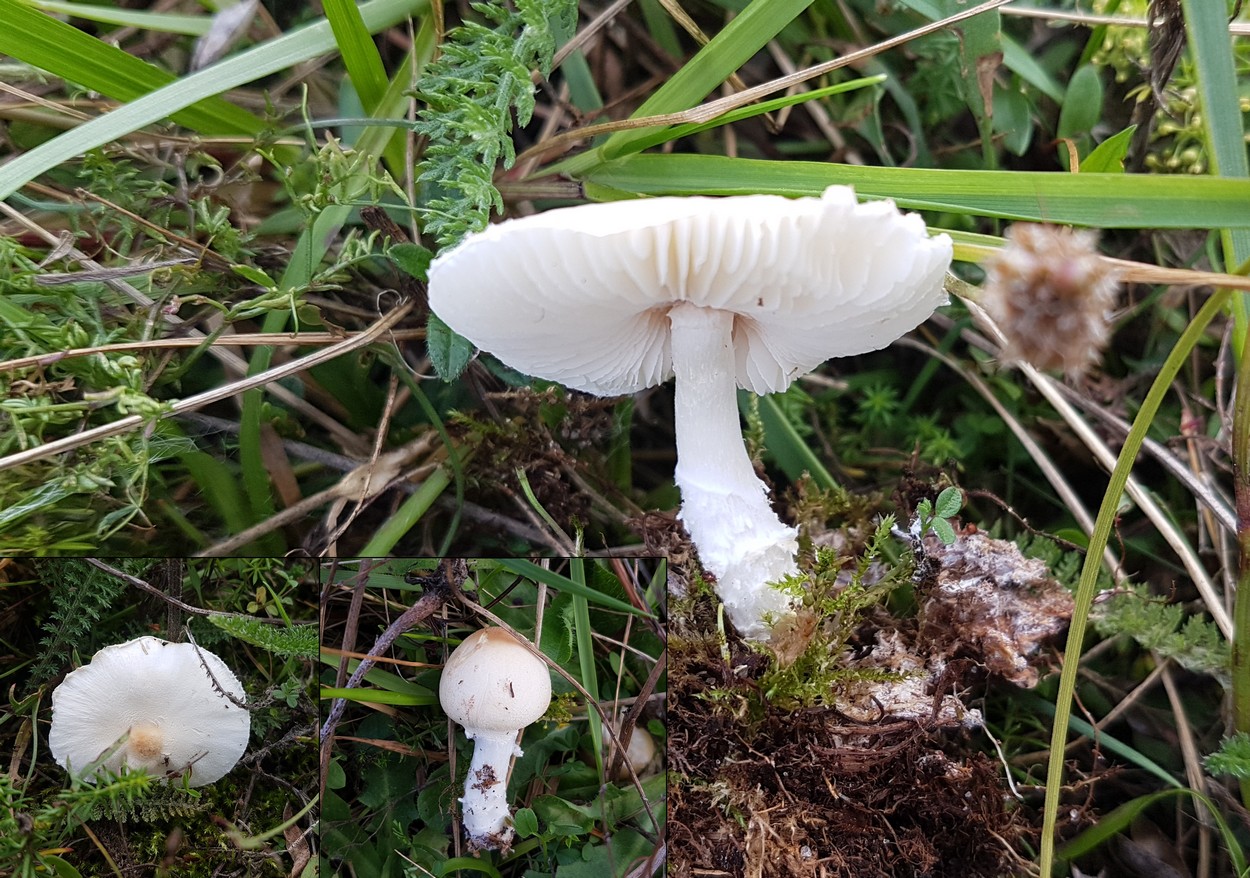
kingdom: Fungi
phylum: Basidiomycota
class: Agaricomycetes
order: Agaricales
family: Agaricaceae
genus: Lepiota
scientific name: Lepiota erminea
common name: hvid parasolhat
